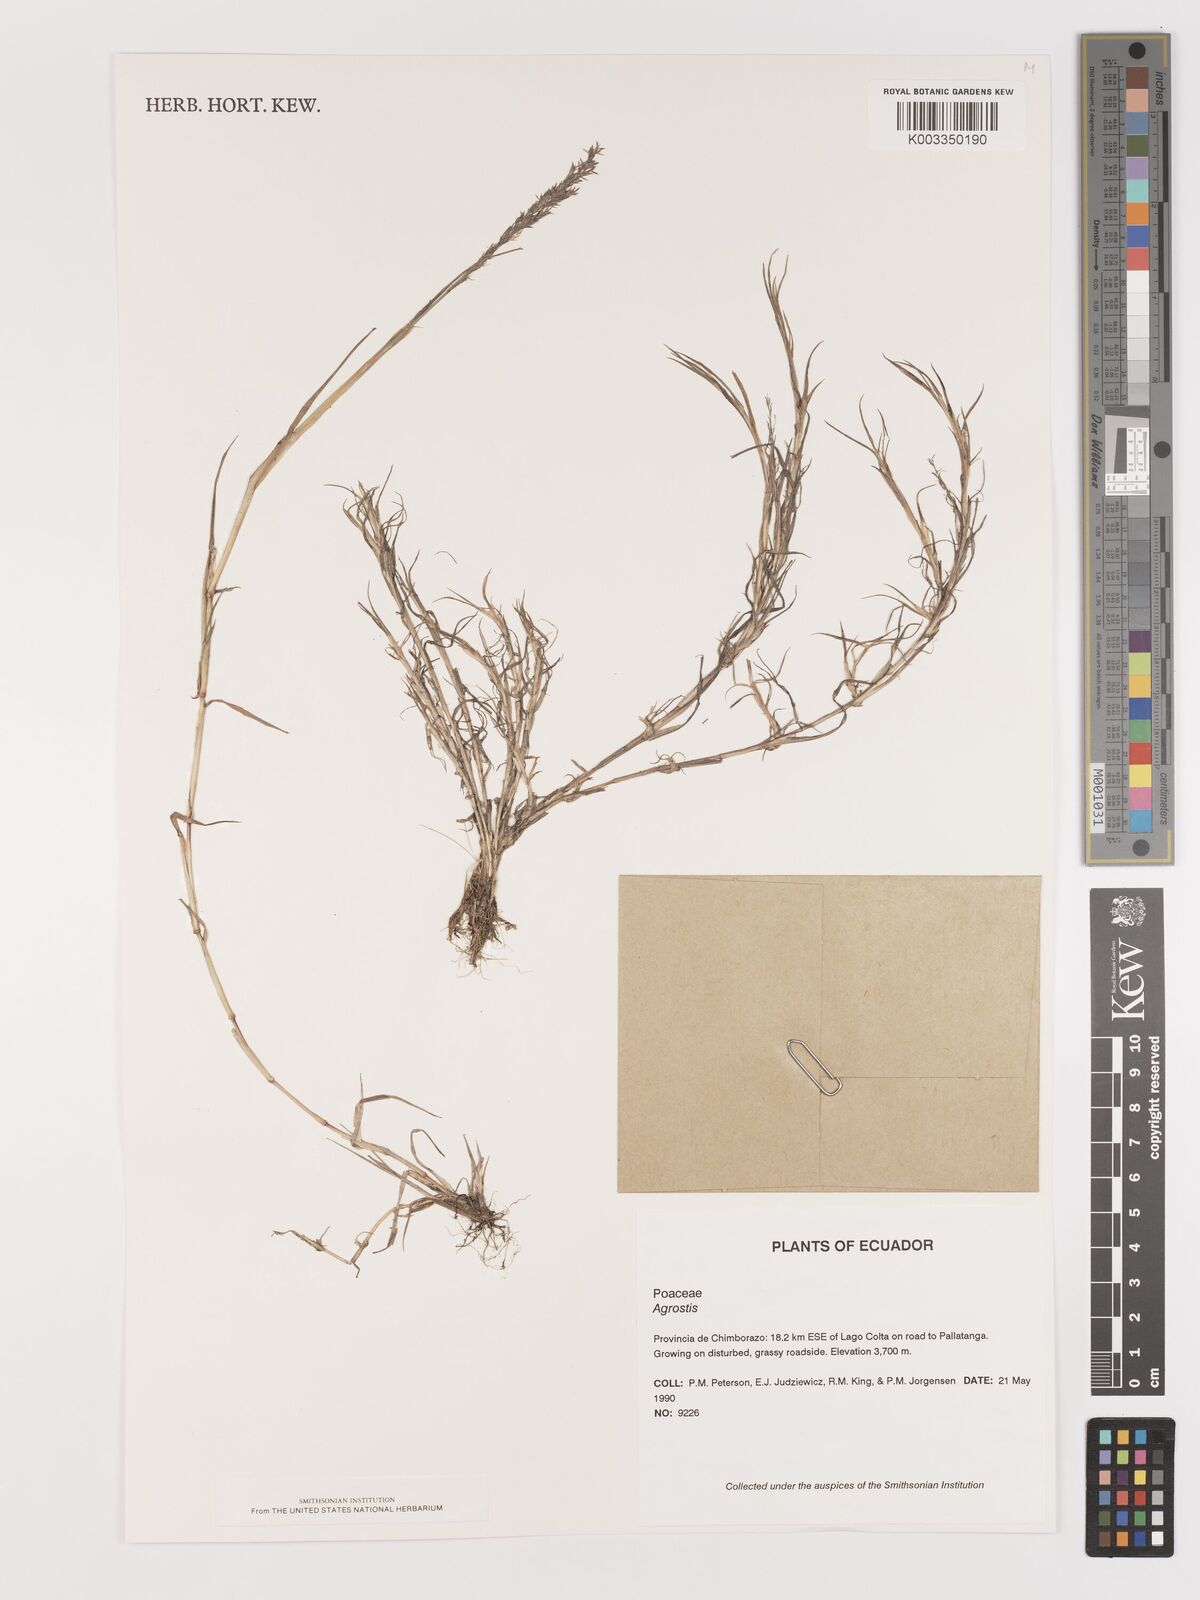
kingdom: Plantae
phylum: Tracheophyta
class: Liliopsida
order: Poales
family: Poaceae
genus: Agrostis
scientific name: Agrostis
